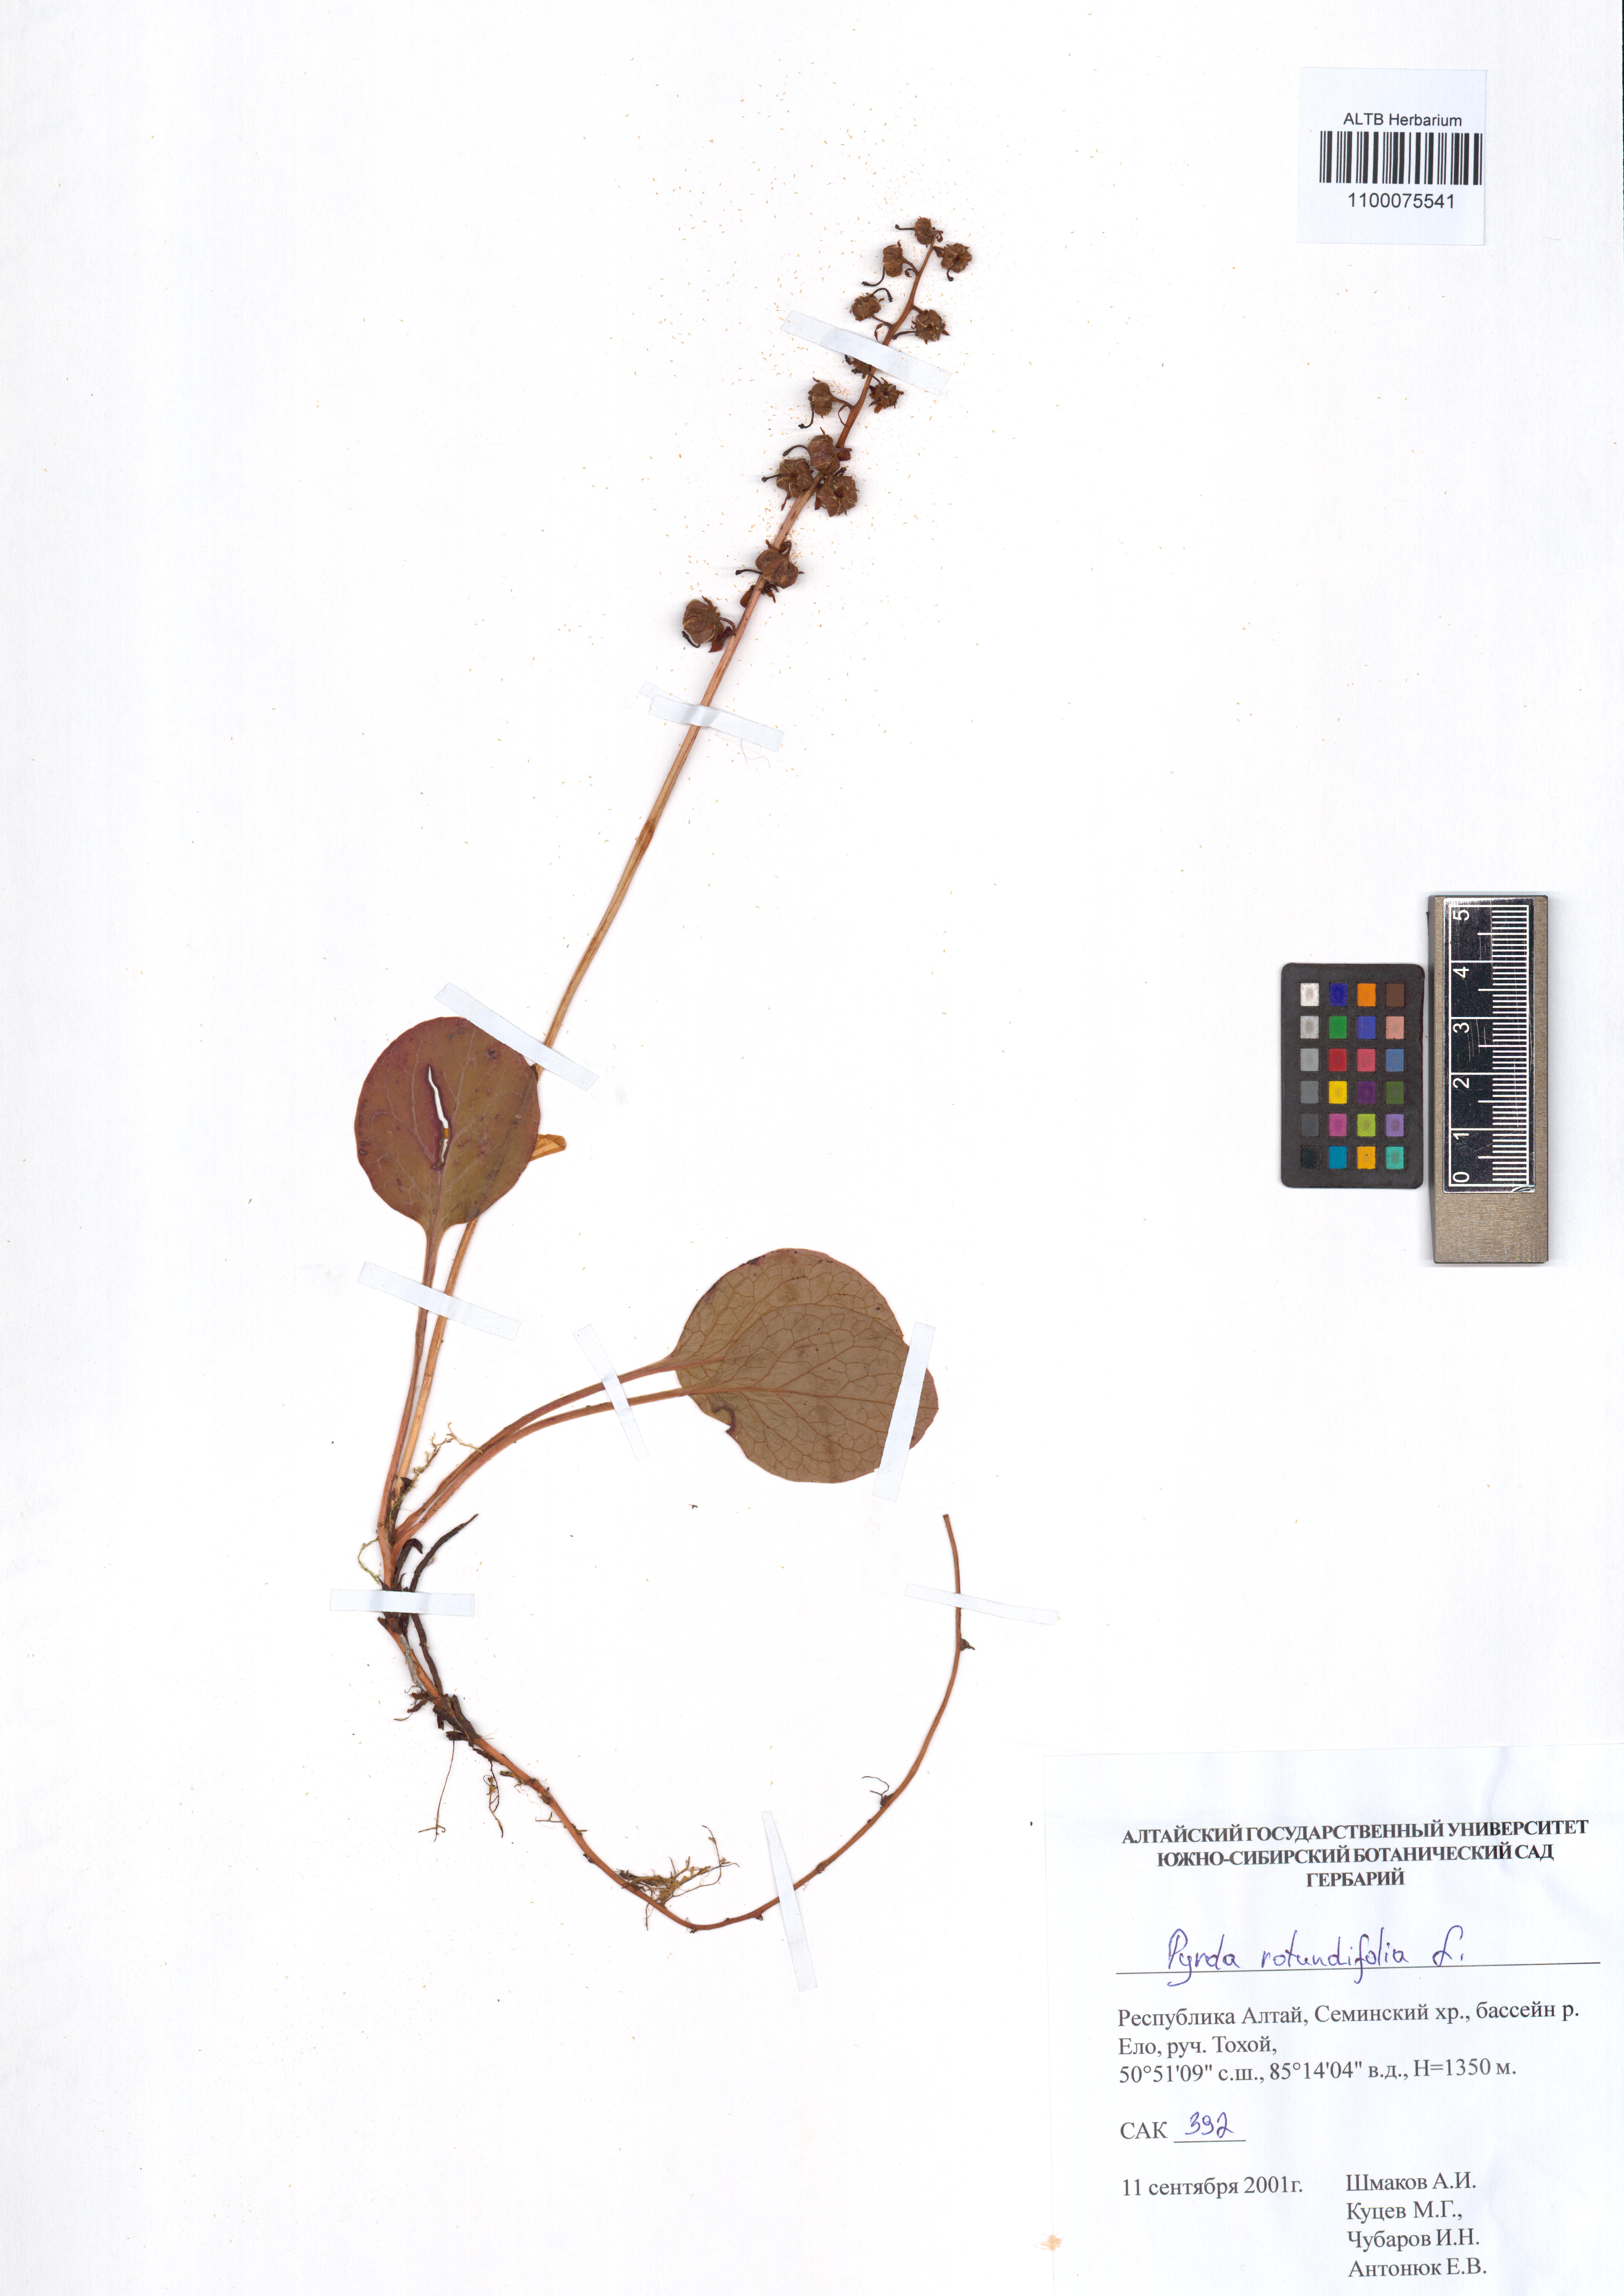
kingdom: Plantae
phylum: Tracheophyta
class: Magnoliopsida
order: Ericales
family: Ericaceae
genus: Pyrola
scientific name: Pyrola rotundifolia
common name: Round-leaved wintergreen
